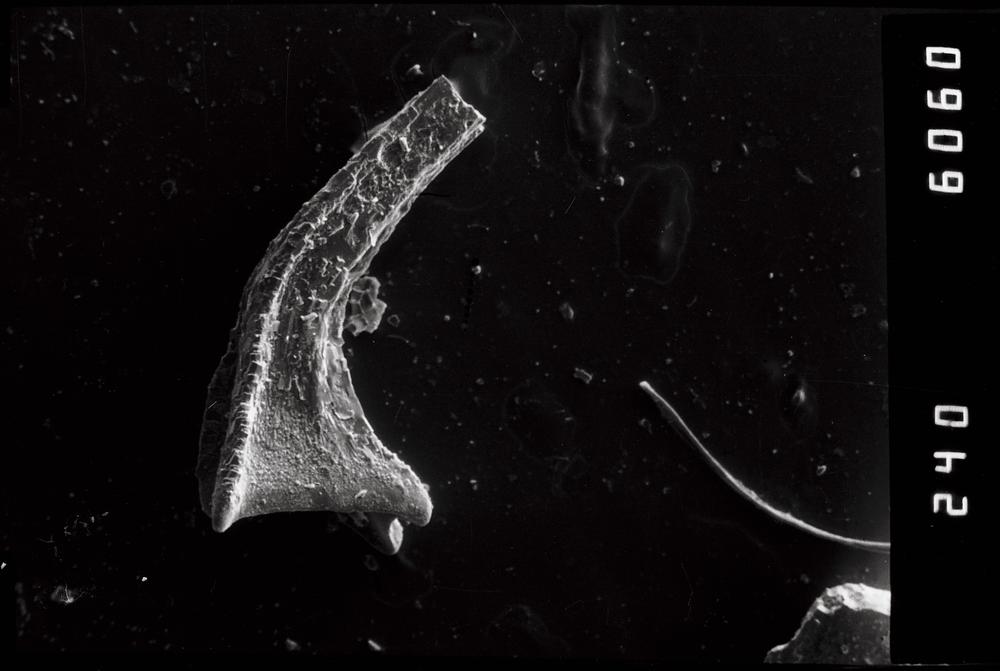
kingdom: Animalia
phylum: Annelida
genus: Paltodus
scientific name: Paltodus
